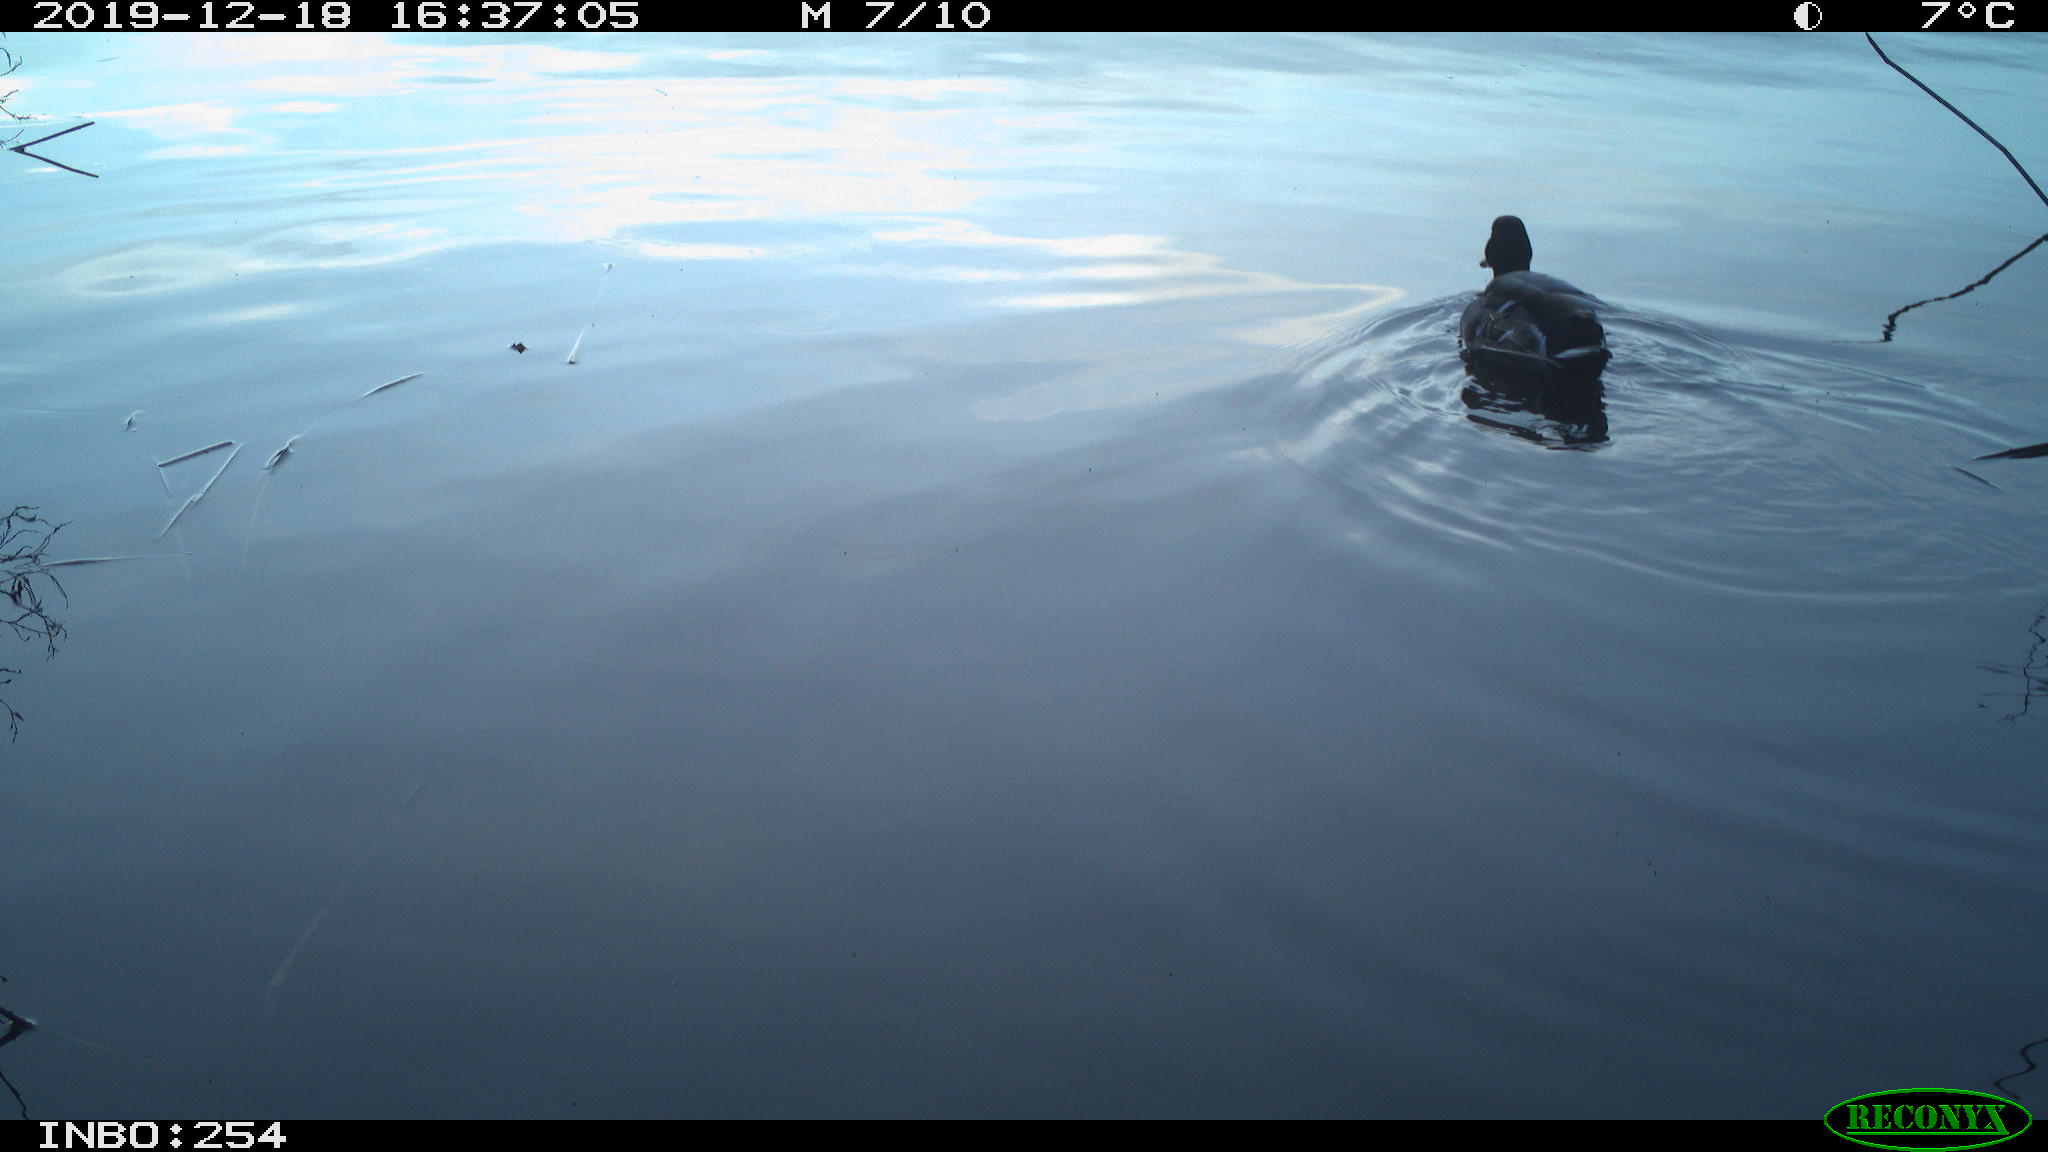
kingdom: Animalia
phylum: Chordata
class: Aves
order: Gruiformes
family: Rallidae
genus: Gallinula
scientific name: Gallinula chloropus
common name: Common moorhen
